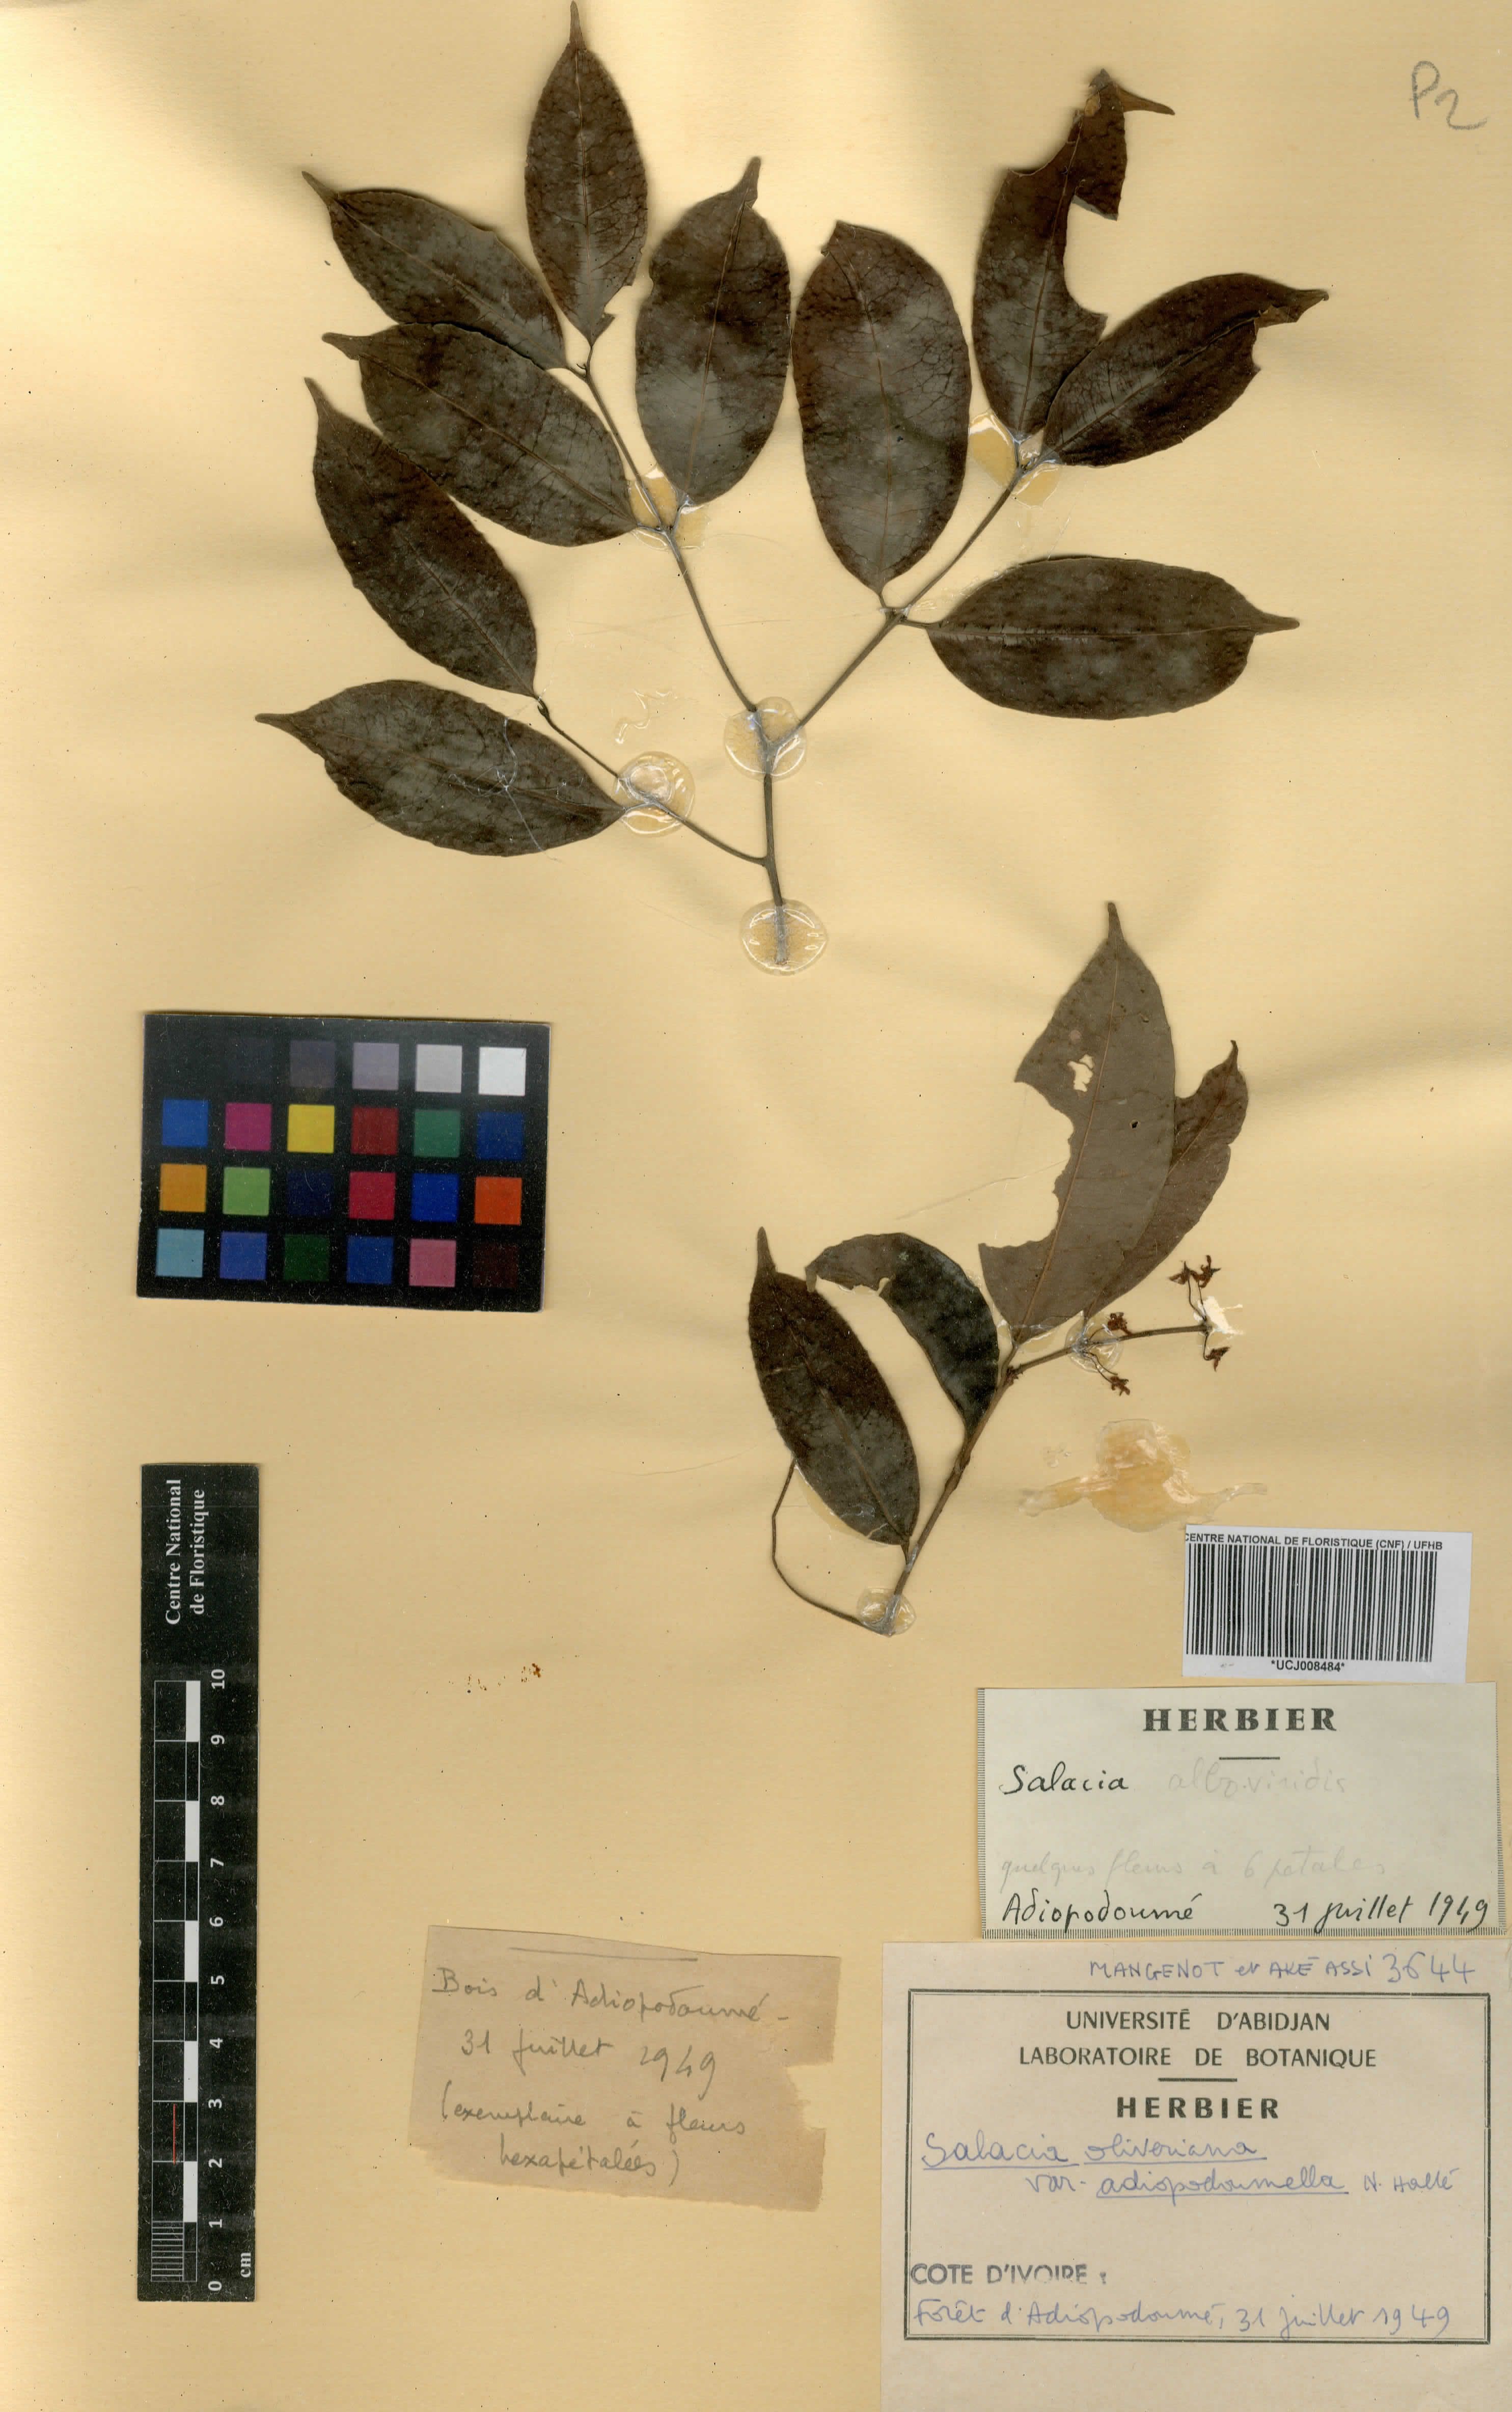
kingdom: Plantae
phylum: Tracheophyta
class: Magnoliopsida
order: Celastrales
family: Celastraceae
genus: Salacia
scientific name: Salacia oliveriana
